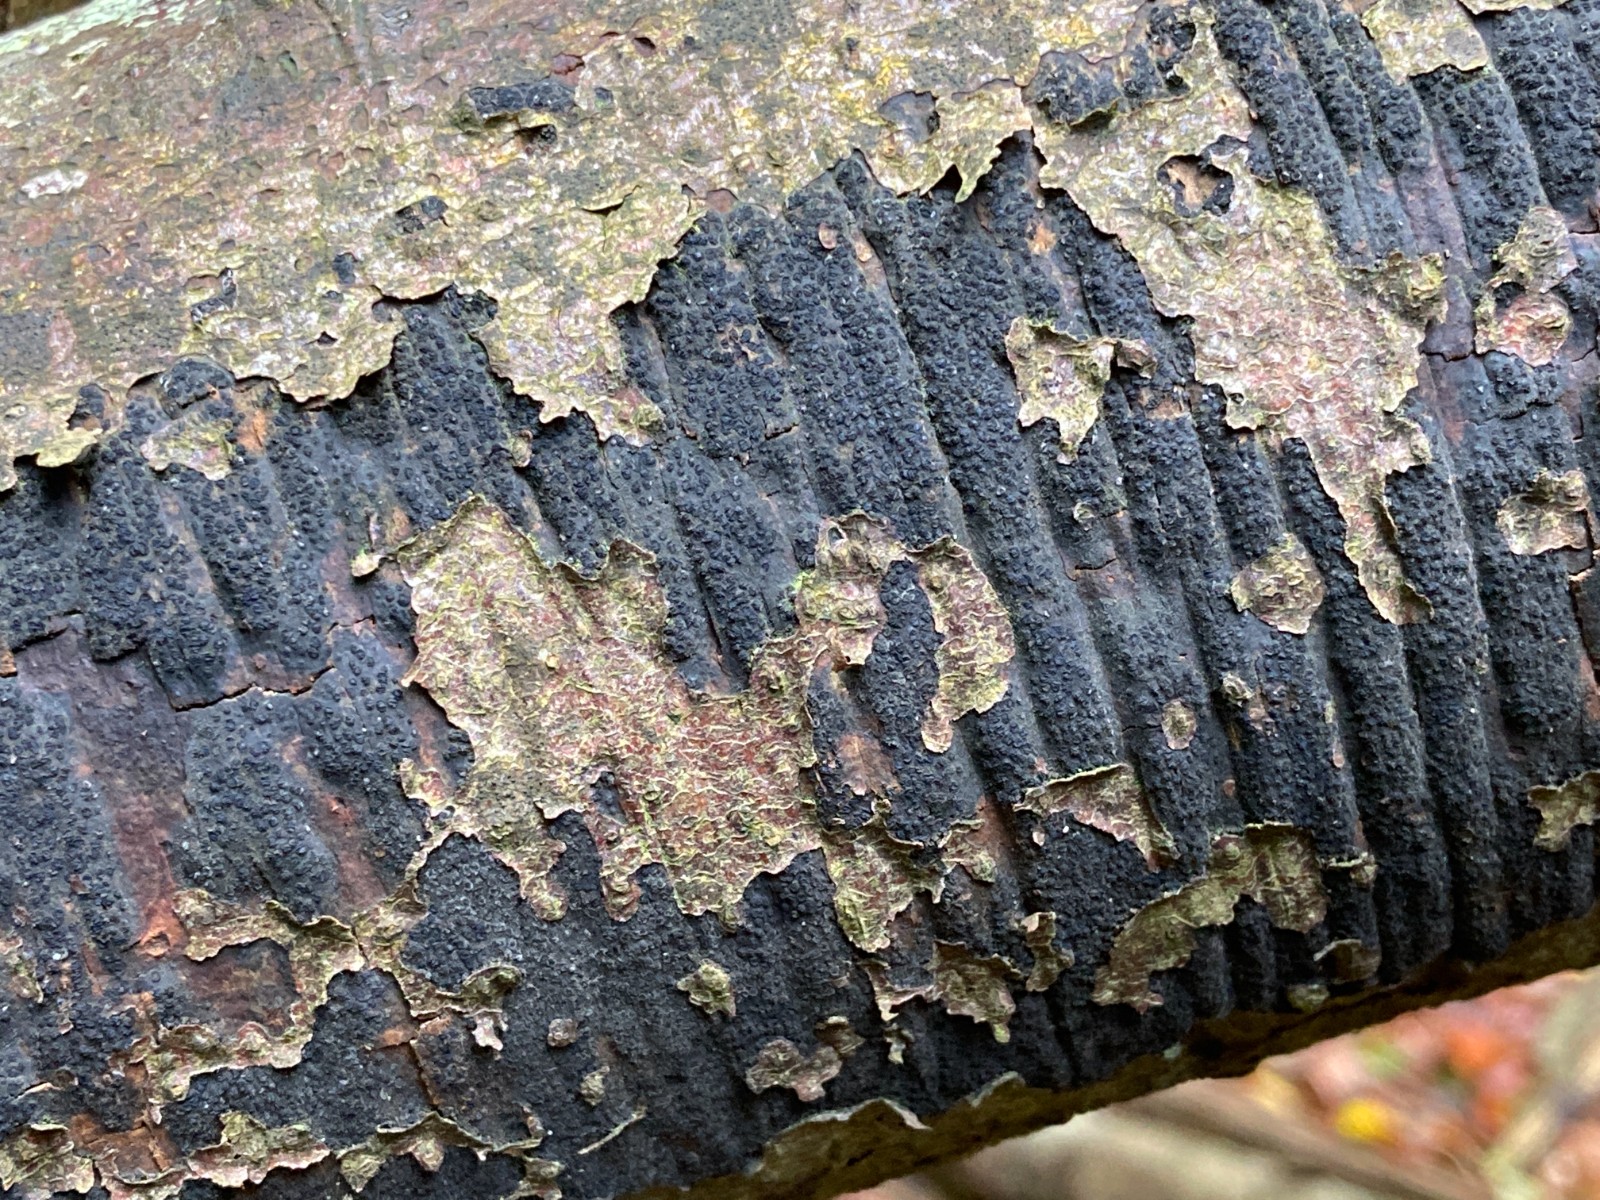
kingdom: Fungi
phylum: Ascomycota
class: Sordariomycetes
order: Xylariales
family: Diatrypaceae
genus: Eutypa
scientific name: Eutypa spinosa
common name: grov kulskorpe
